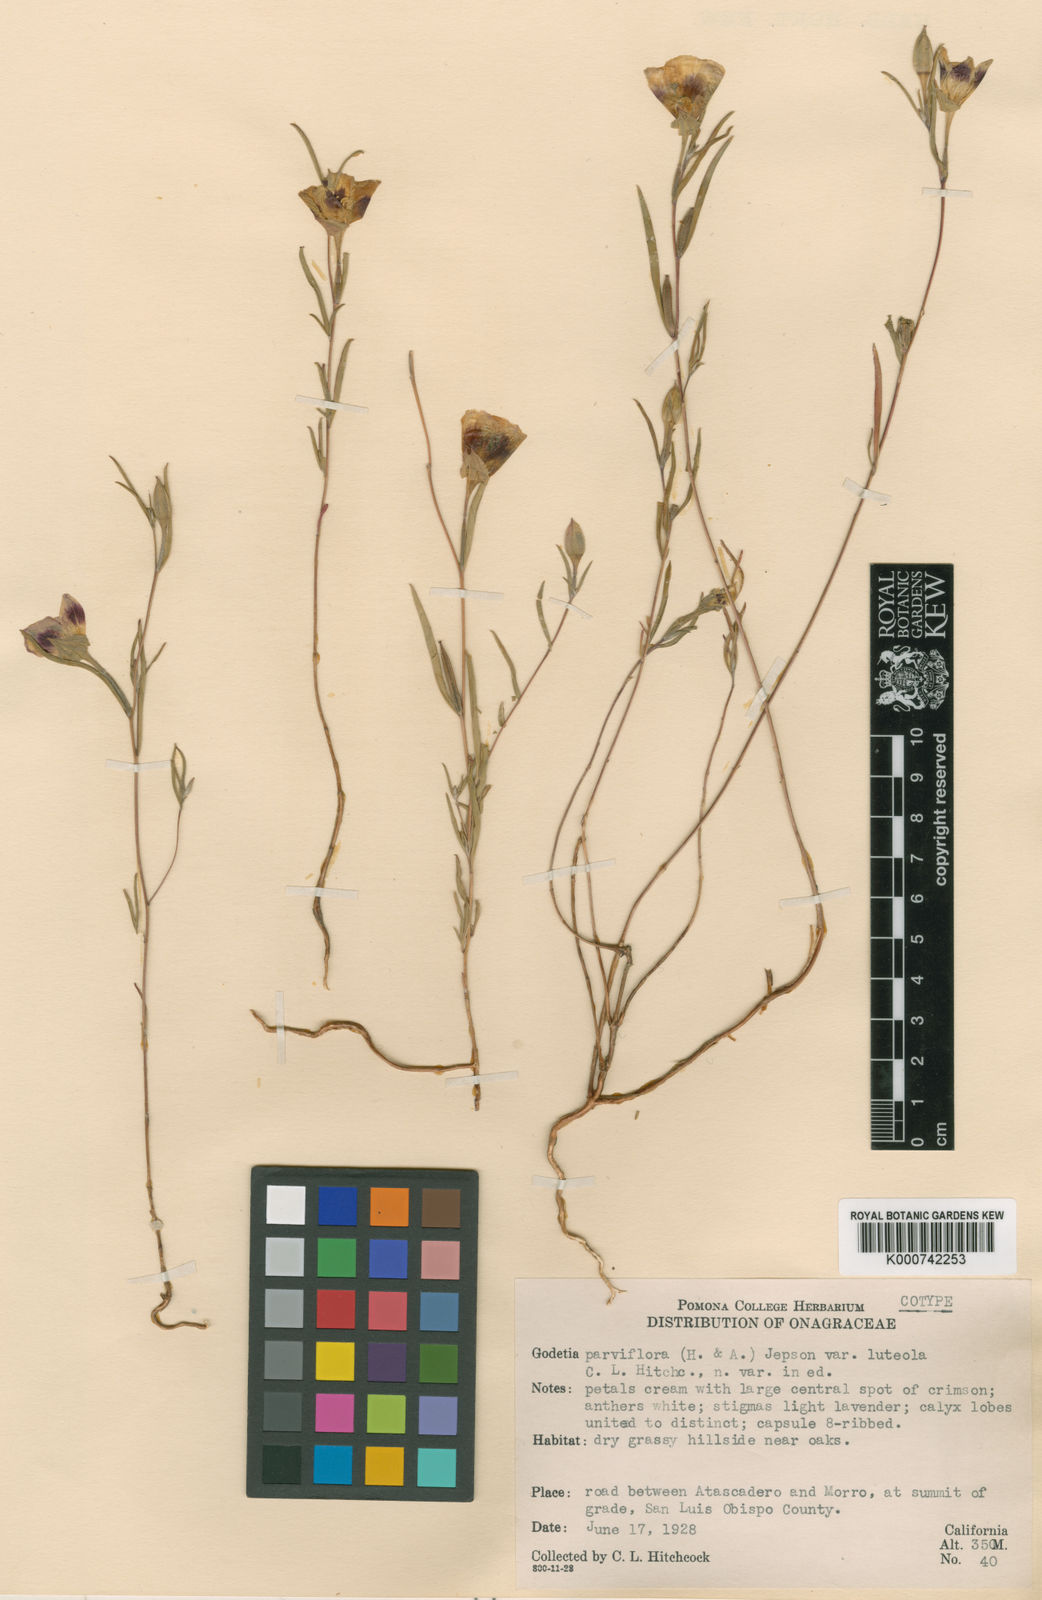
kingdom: Plantae
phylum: Tracheophyta
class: Magnoliopsida
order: Myrtales
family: Onagraceae
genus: Clarkia
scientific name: Clarkia speciosa
